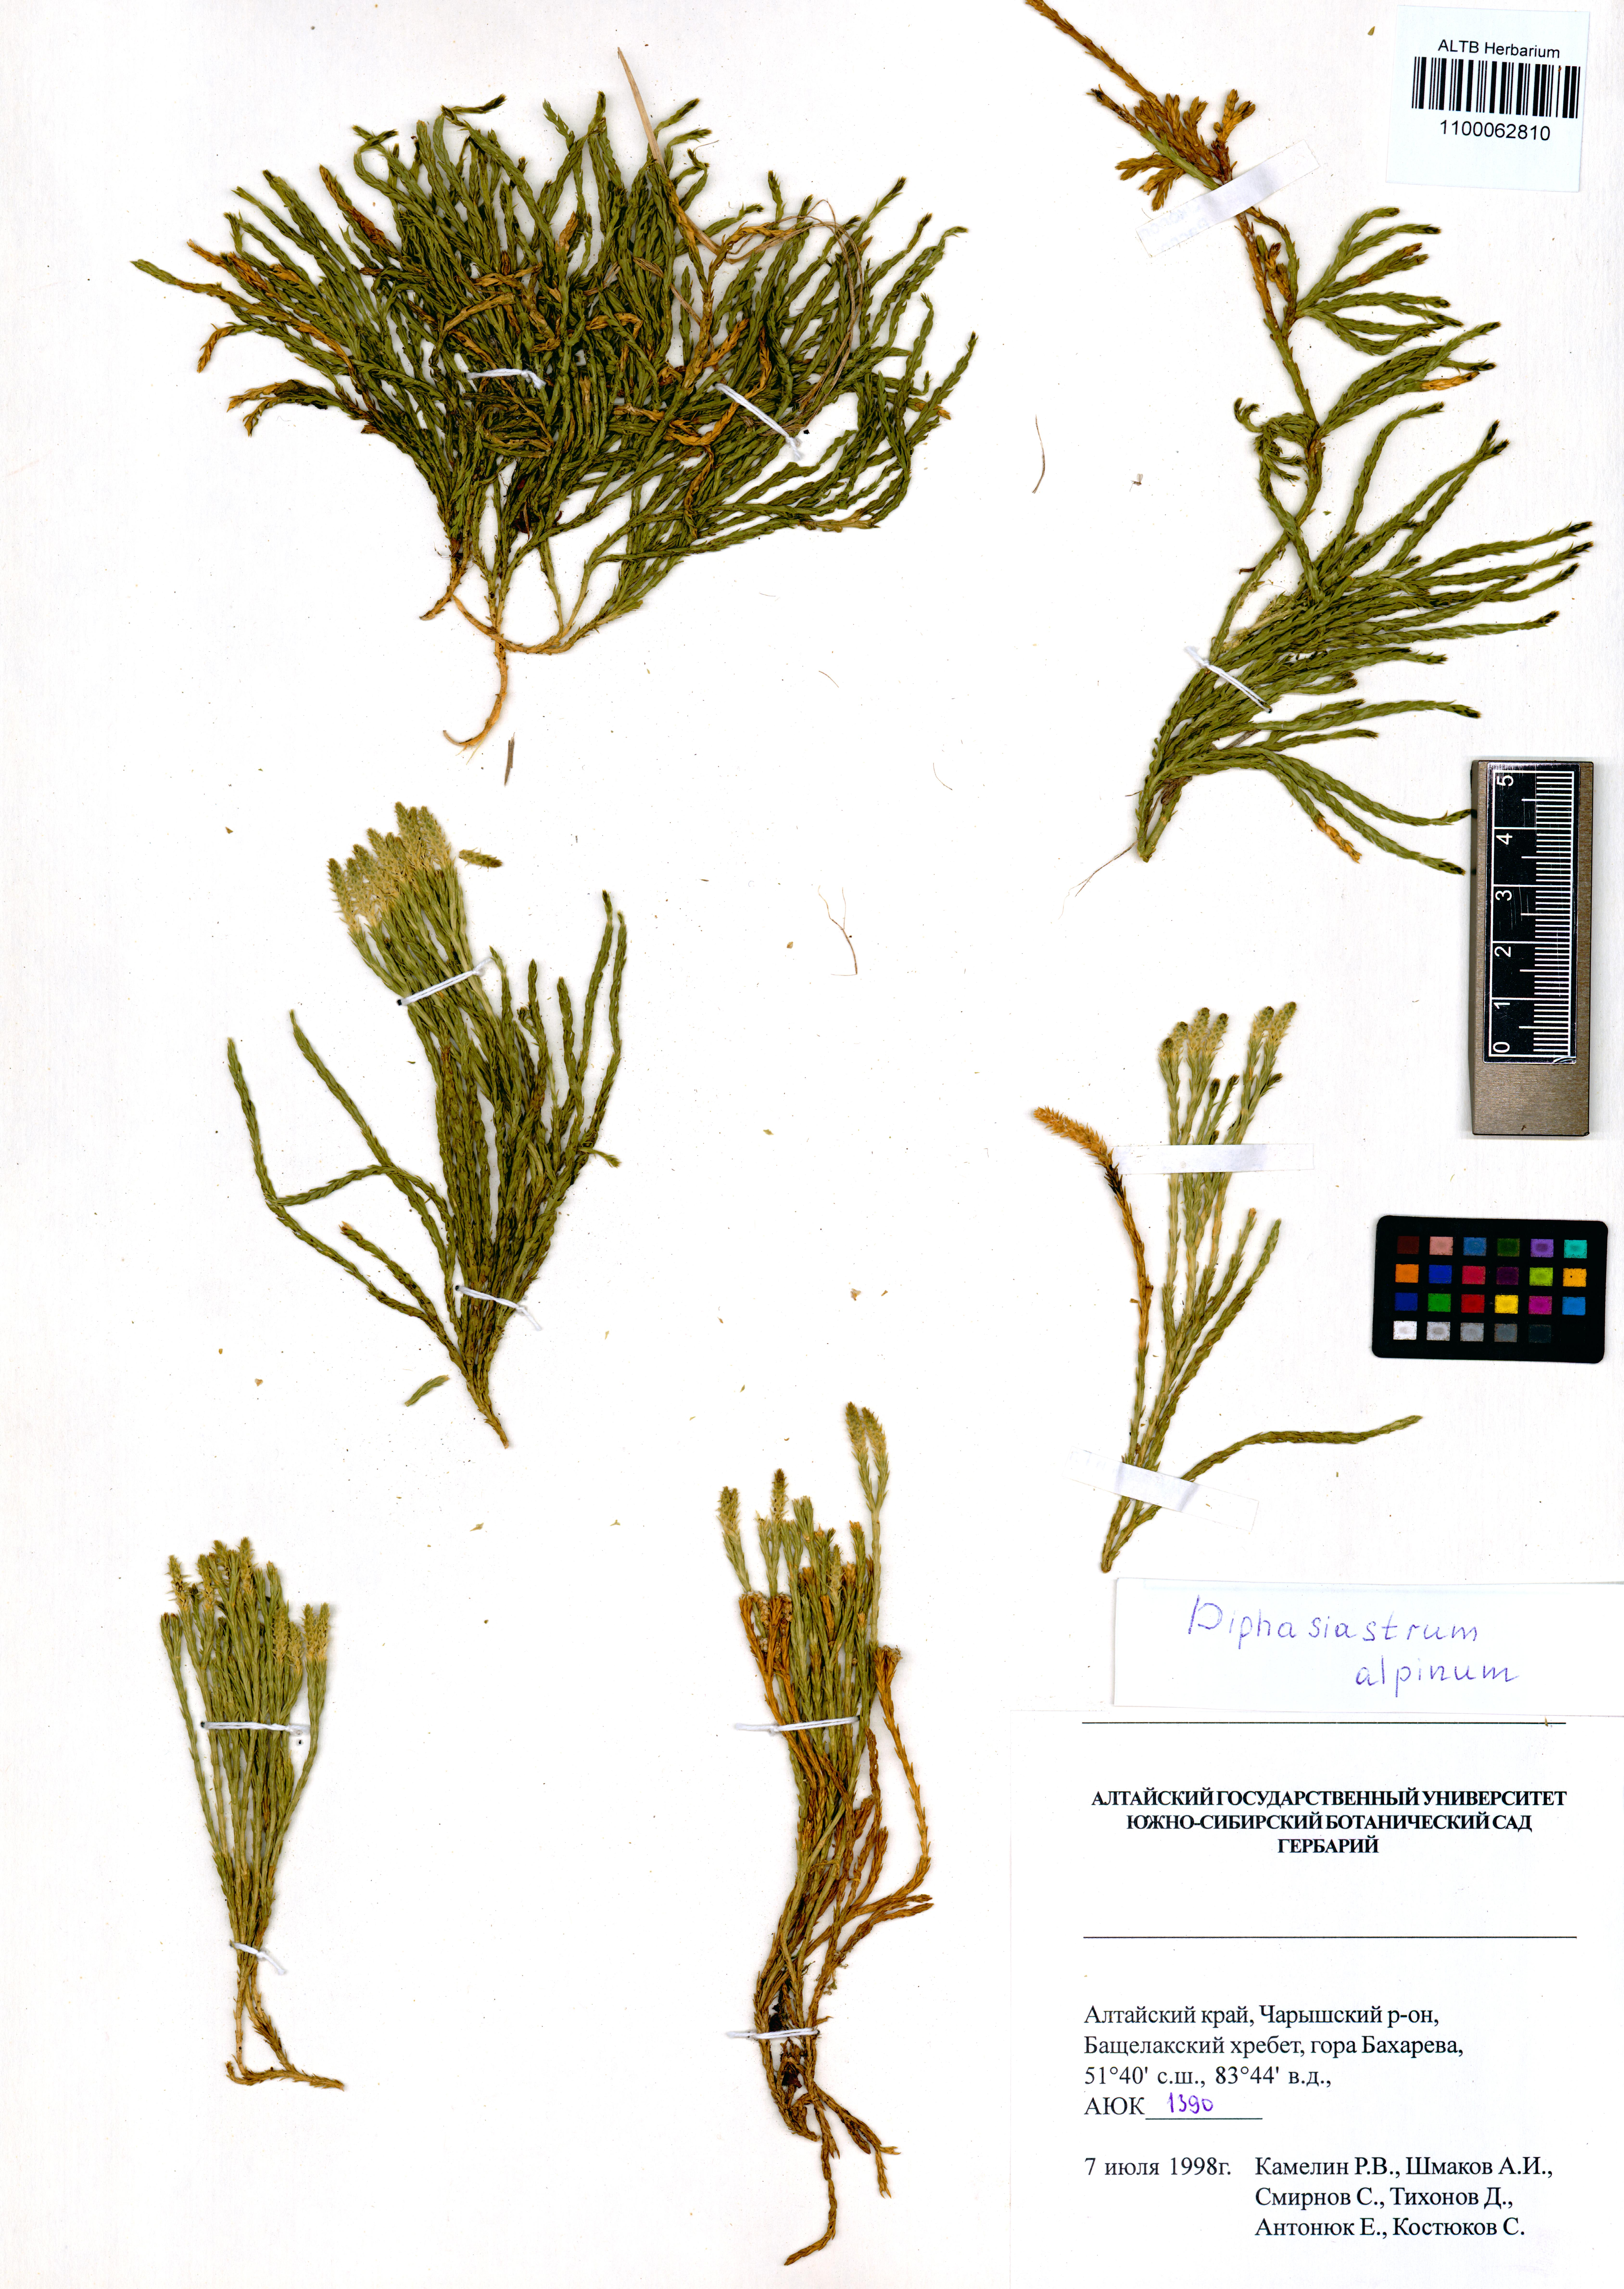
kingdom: Plantae
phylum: Tracheophyta
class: Lycopodiopsida
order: Lycopodiales
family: Lycopodiaceae
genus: Diphasiastrum
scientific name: Diphasiastrum alpinum
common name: Alpine clubmoss
